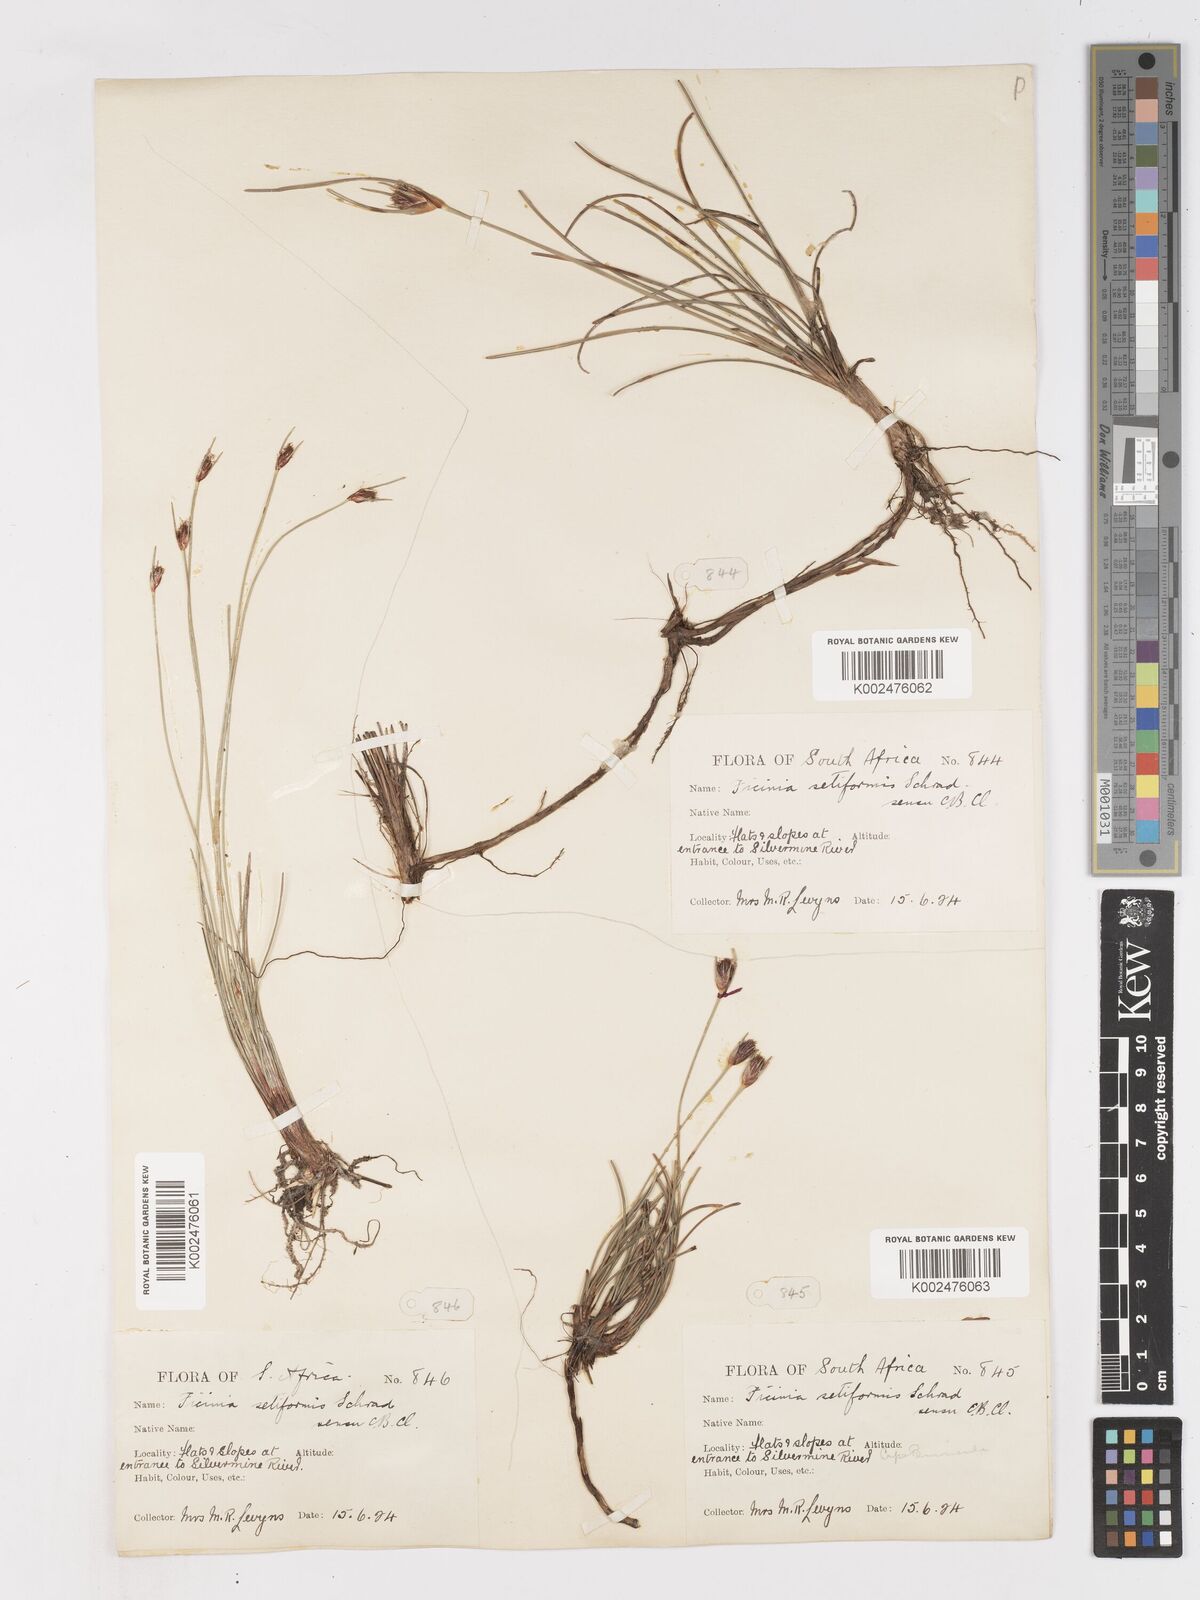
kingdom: Plantae
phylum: Tracheophyta
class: Liliopsida
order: Poales
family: Cyperaceae
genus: Ficinia
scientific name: Ficinia indica
